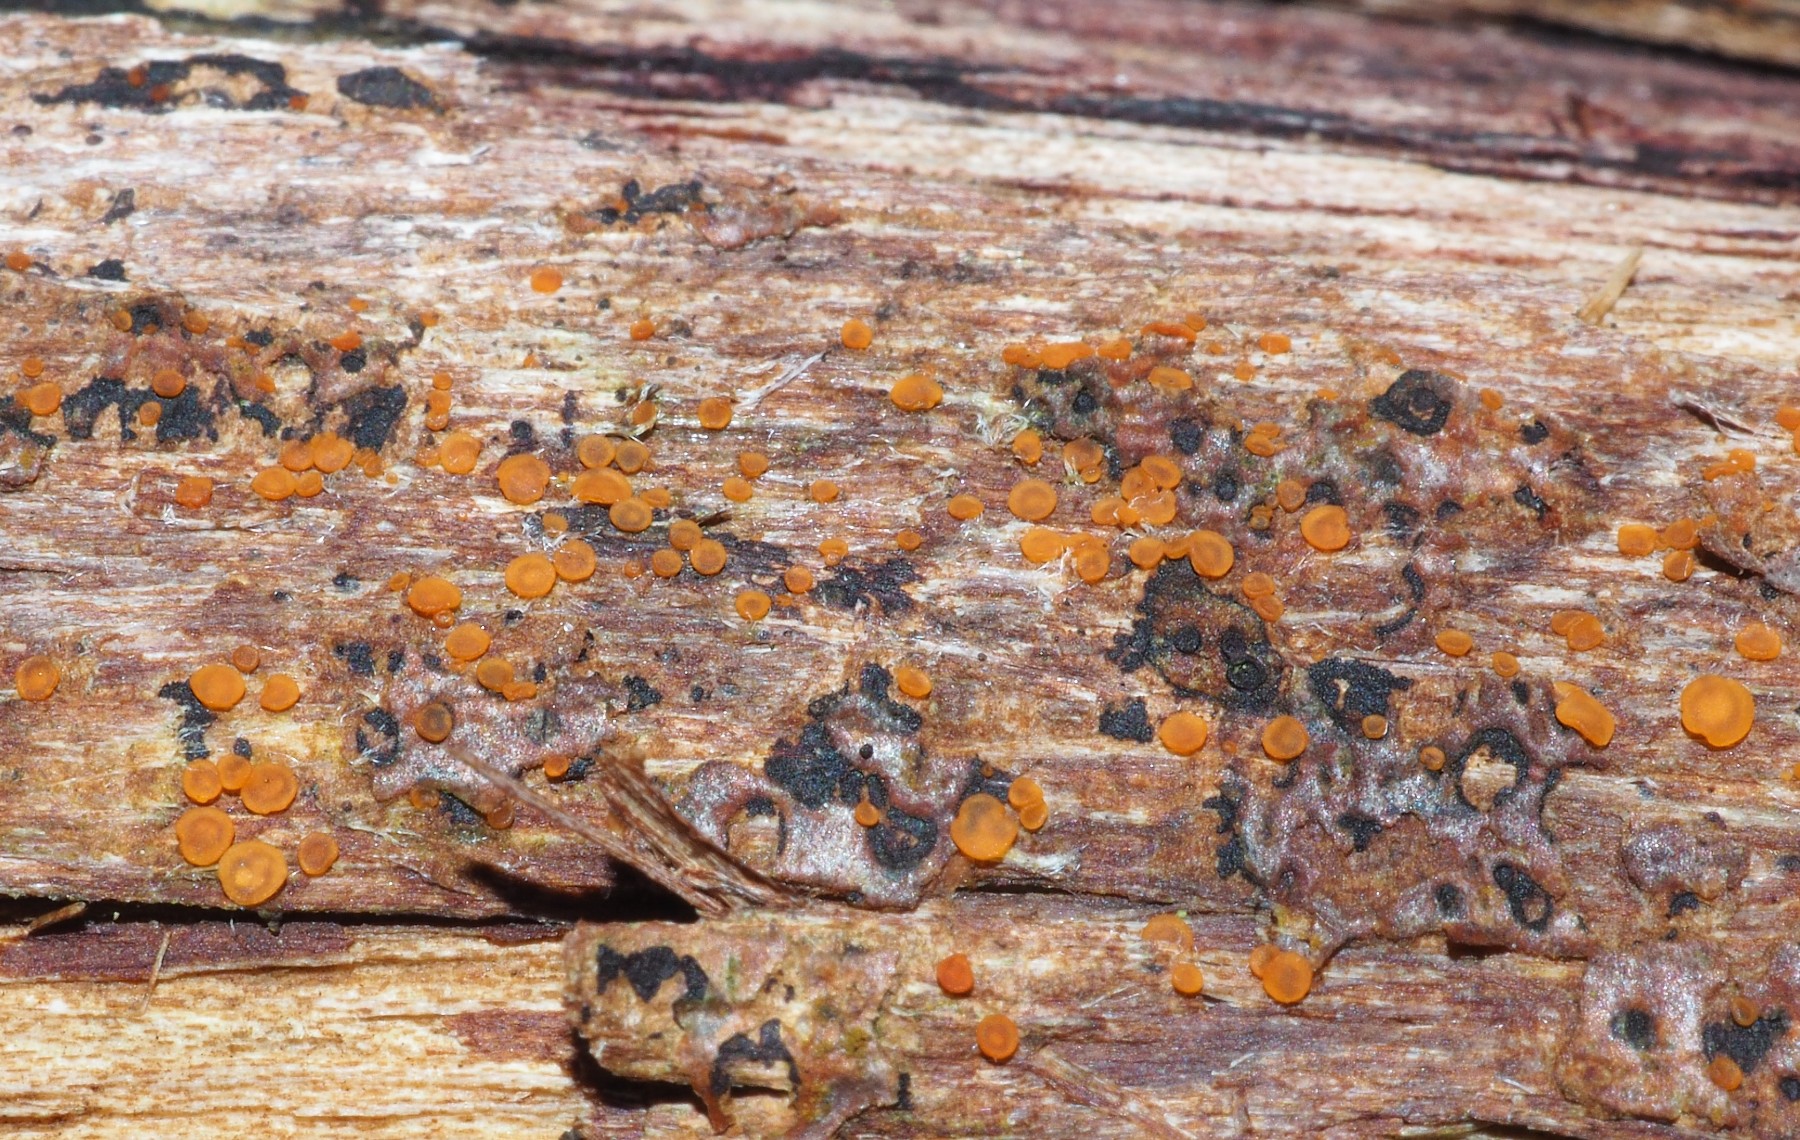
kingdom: Fungi
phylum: Ascomycota
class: Orbiliomycetes
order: Orbiliales
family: Orbiliaceae
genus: Orbilia
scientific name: Orbilia
